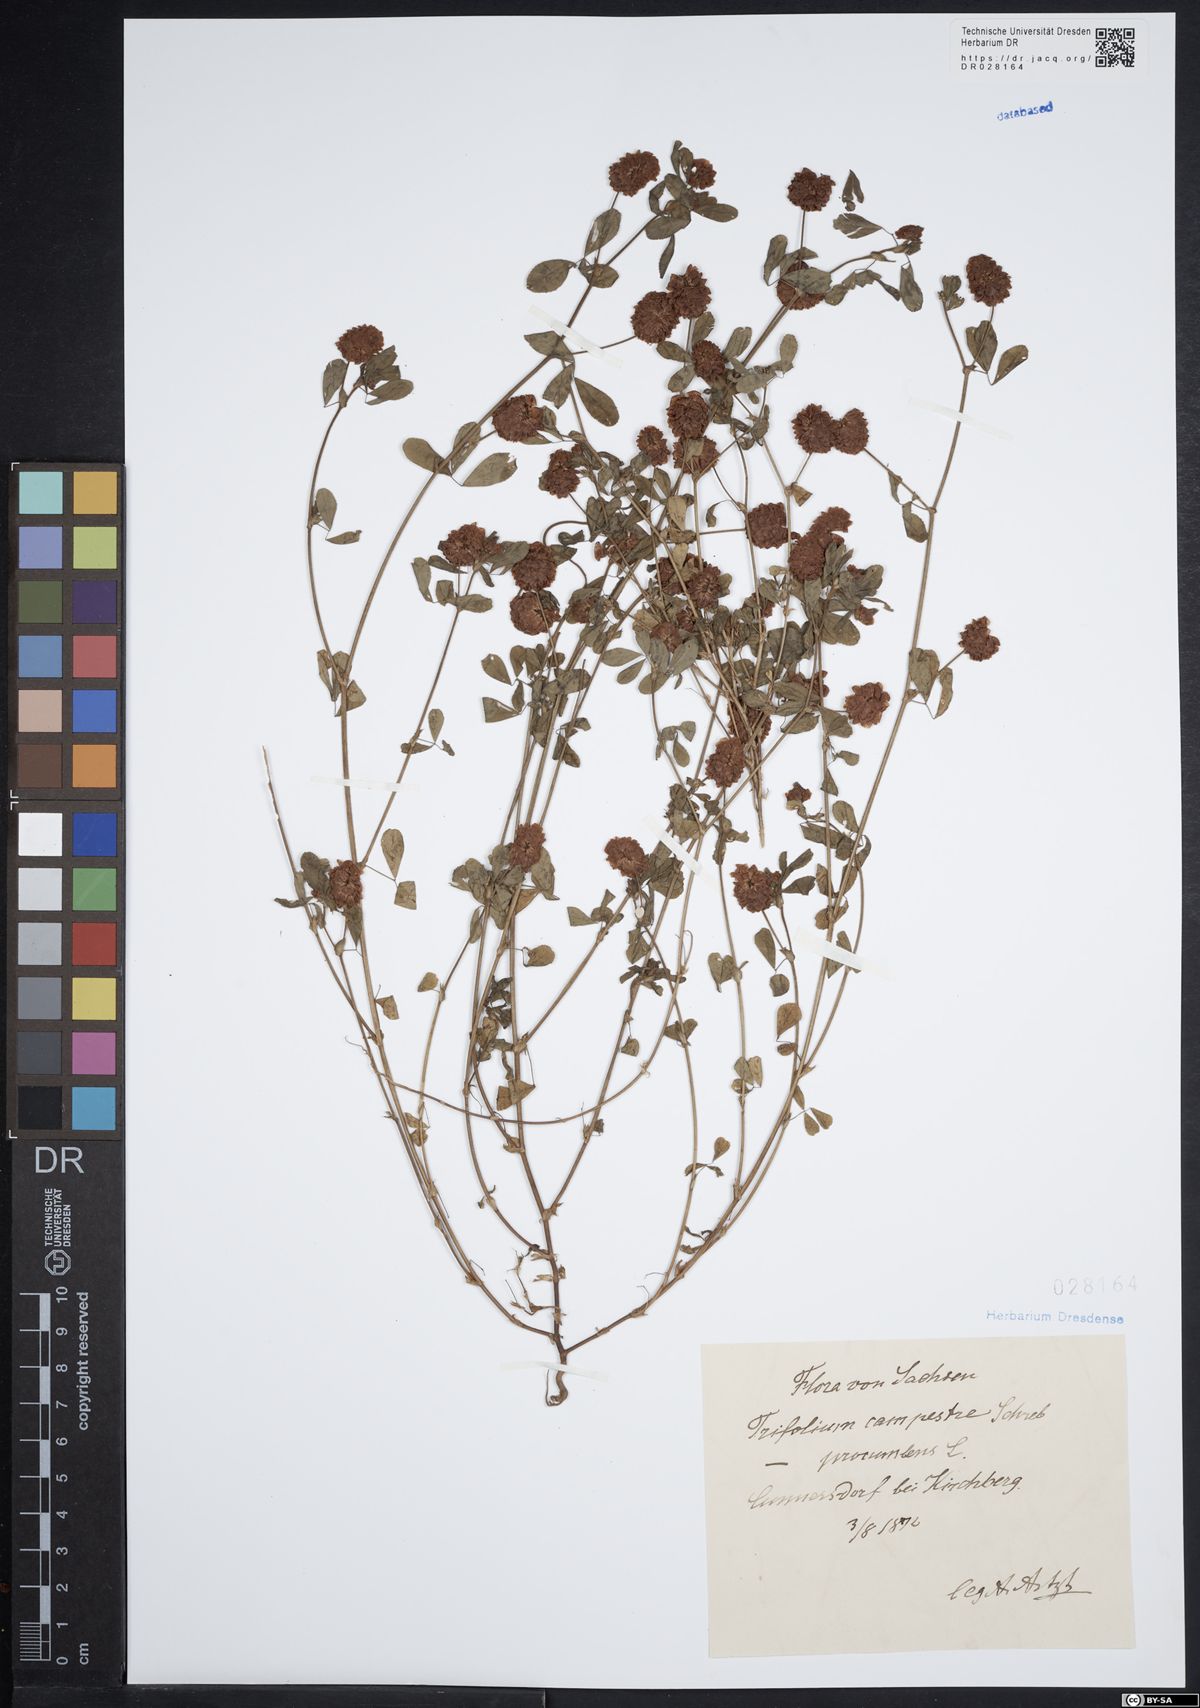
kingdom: Plantae
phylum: Tracheophyta
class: Magnoliopsida
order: Fabales
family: Fabaceae
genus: Trifolium
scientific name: Trifolium campestre
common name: Field clover
